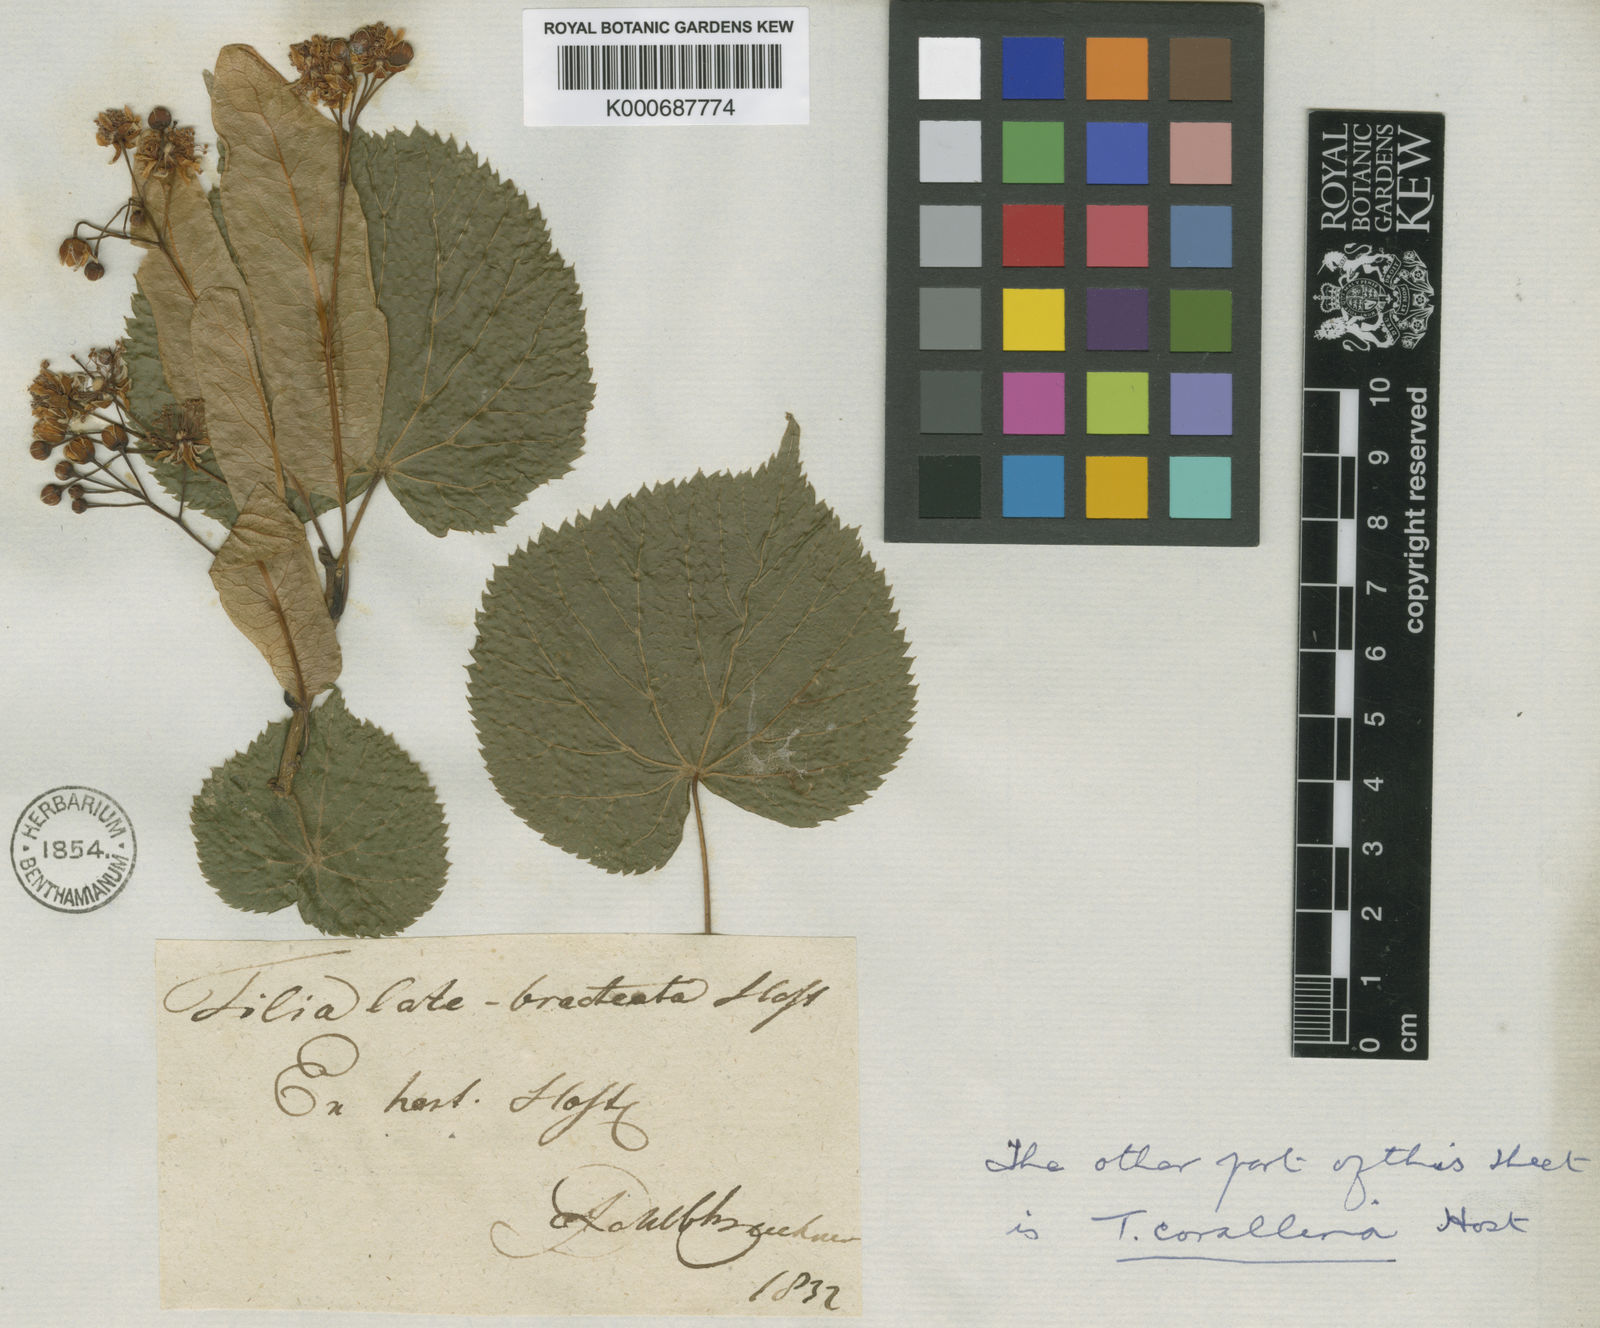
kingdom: Plantae
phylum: Tracheophyta
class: Magnoliopsida
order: Malvales
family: Malvaceae
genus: Tilia
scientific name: Tilia platyphyllos
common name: Large-leaved lime
